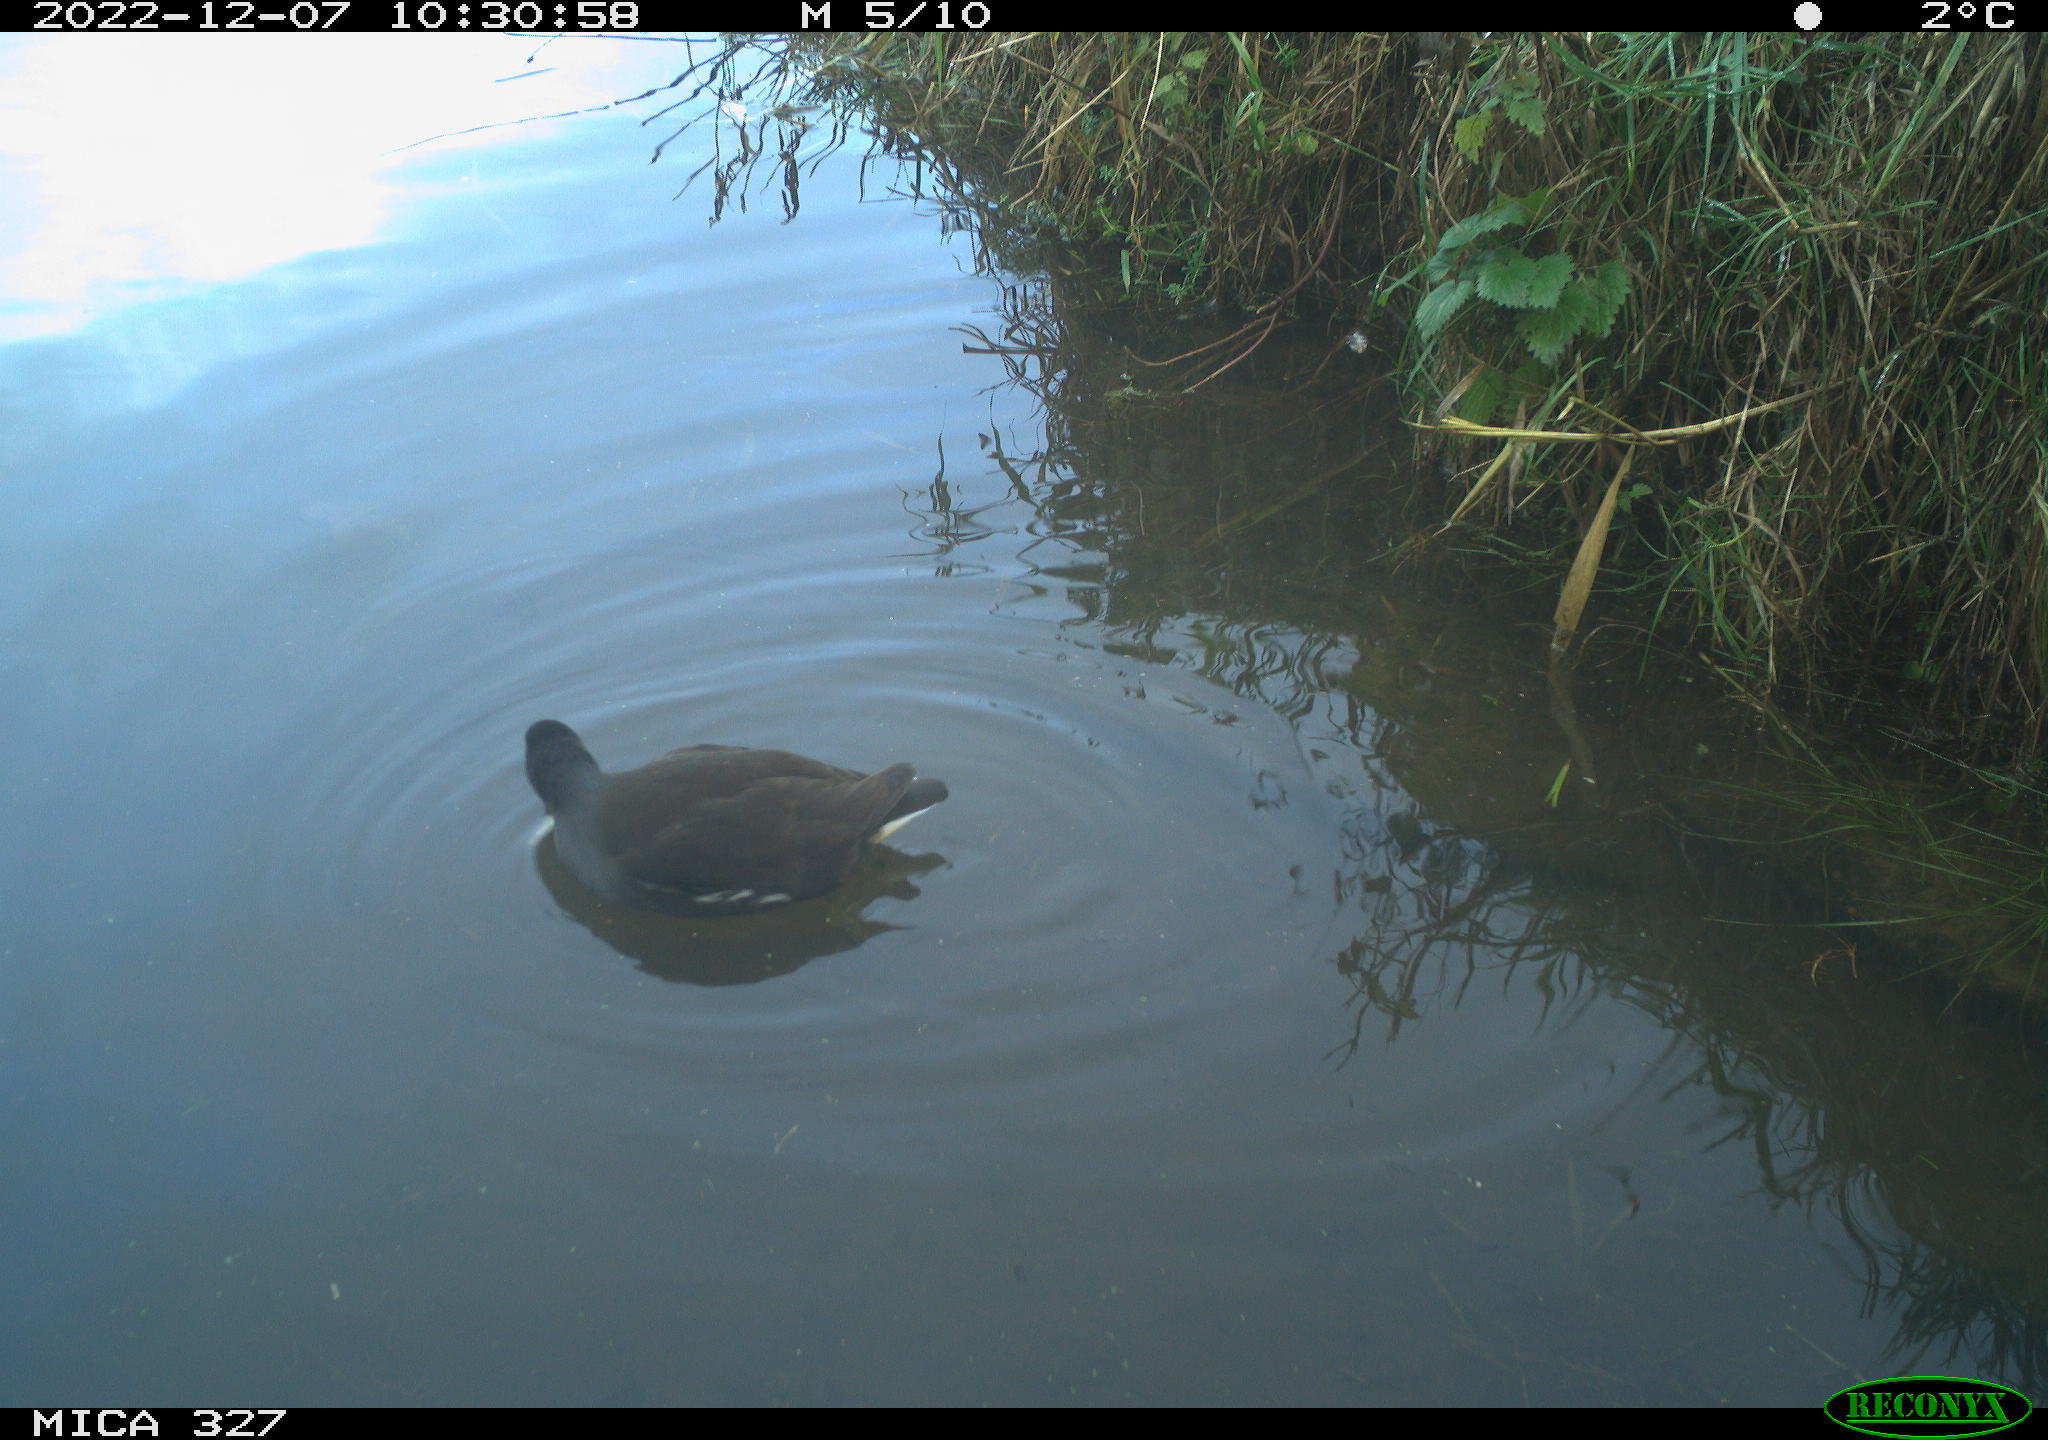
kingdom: Animalia
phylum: Chordata
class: Aves
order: Gruiformes
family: Rallidae
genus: Gallinula
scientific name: Gallinula chloropus
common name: Common moorhen
